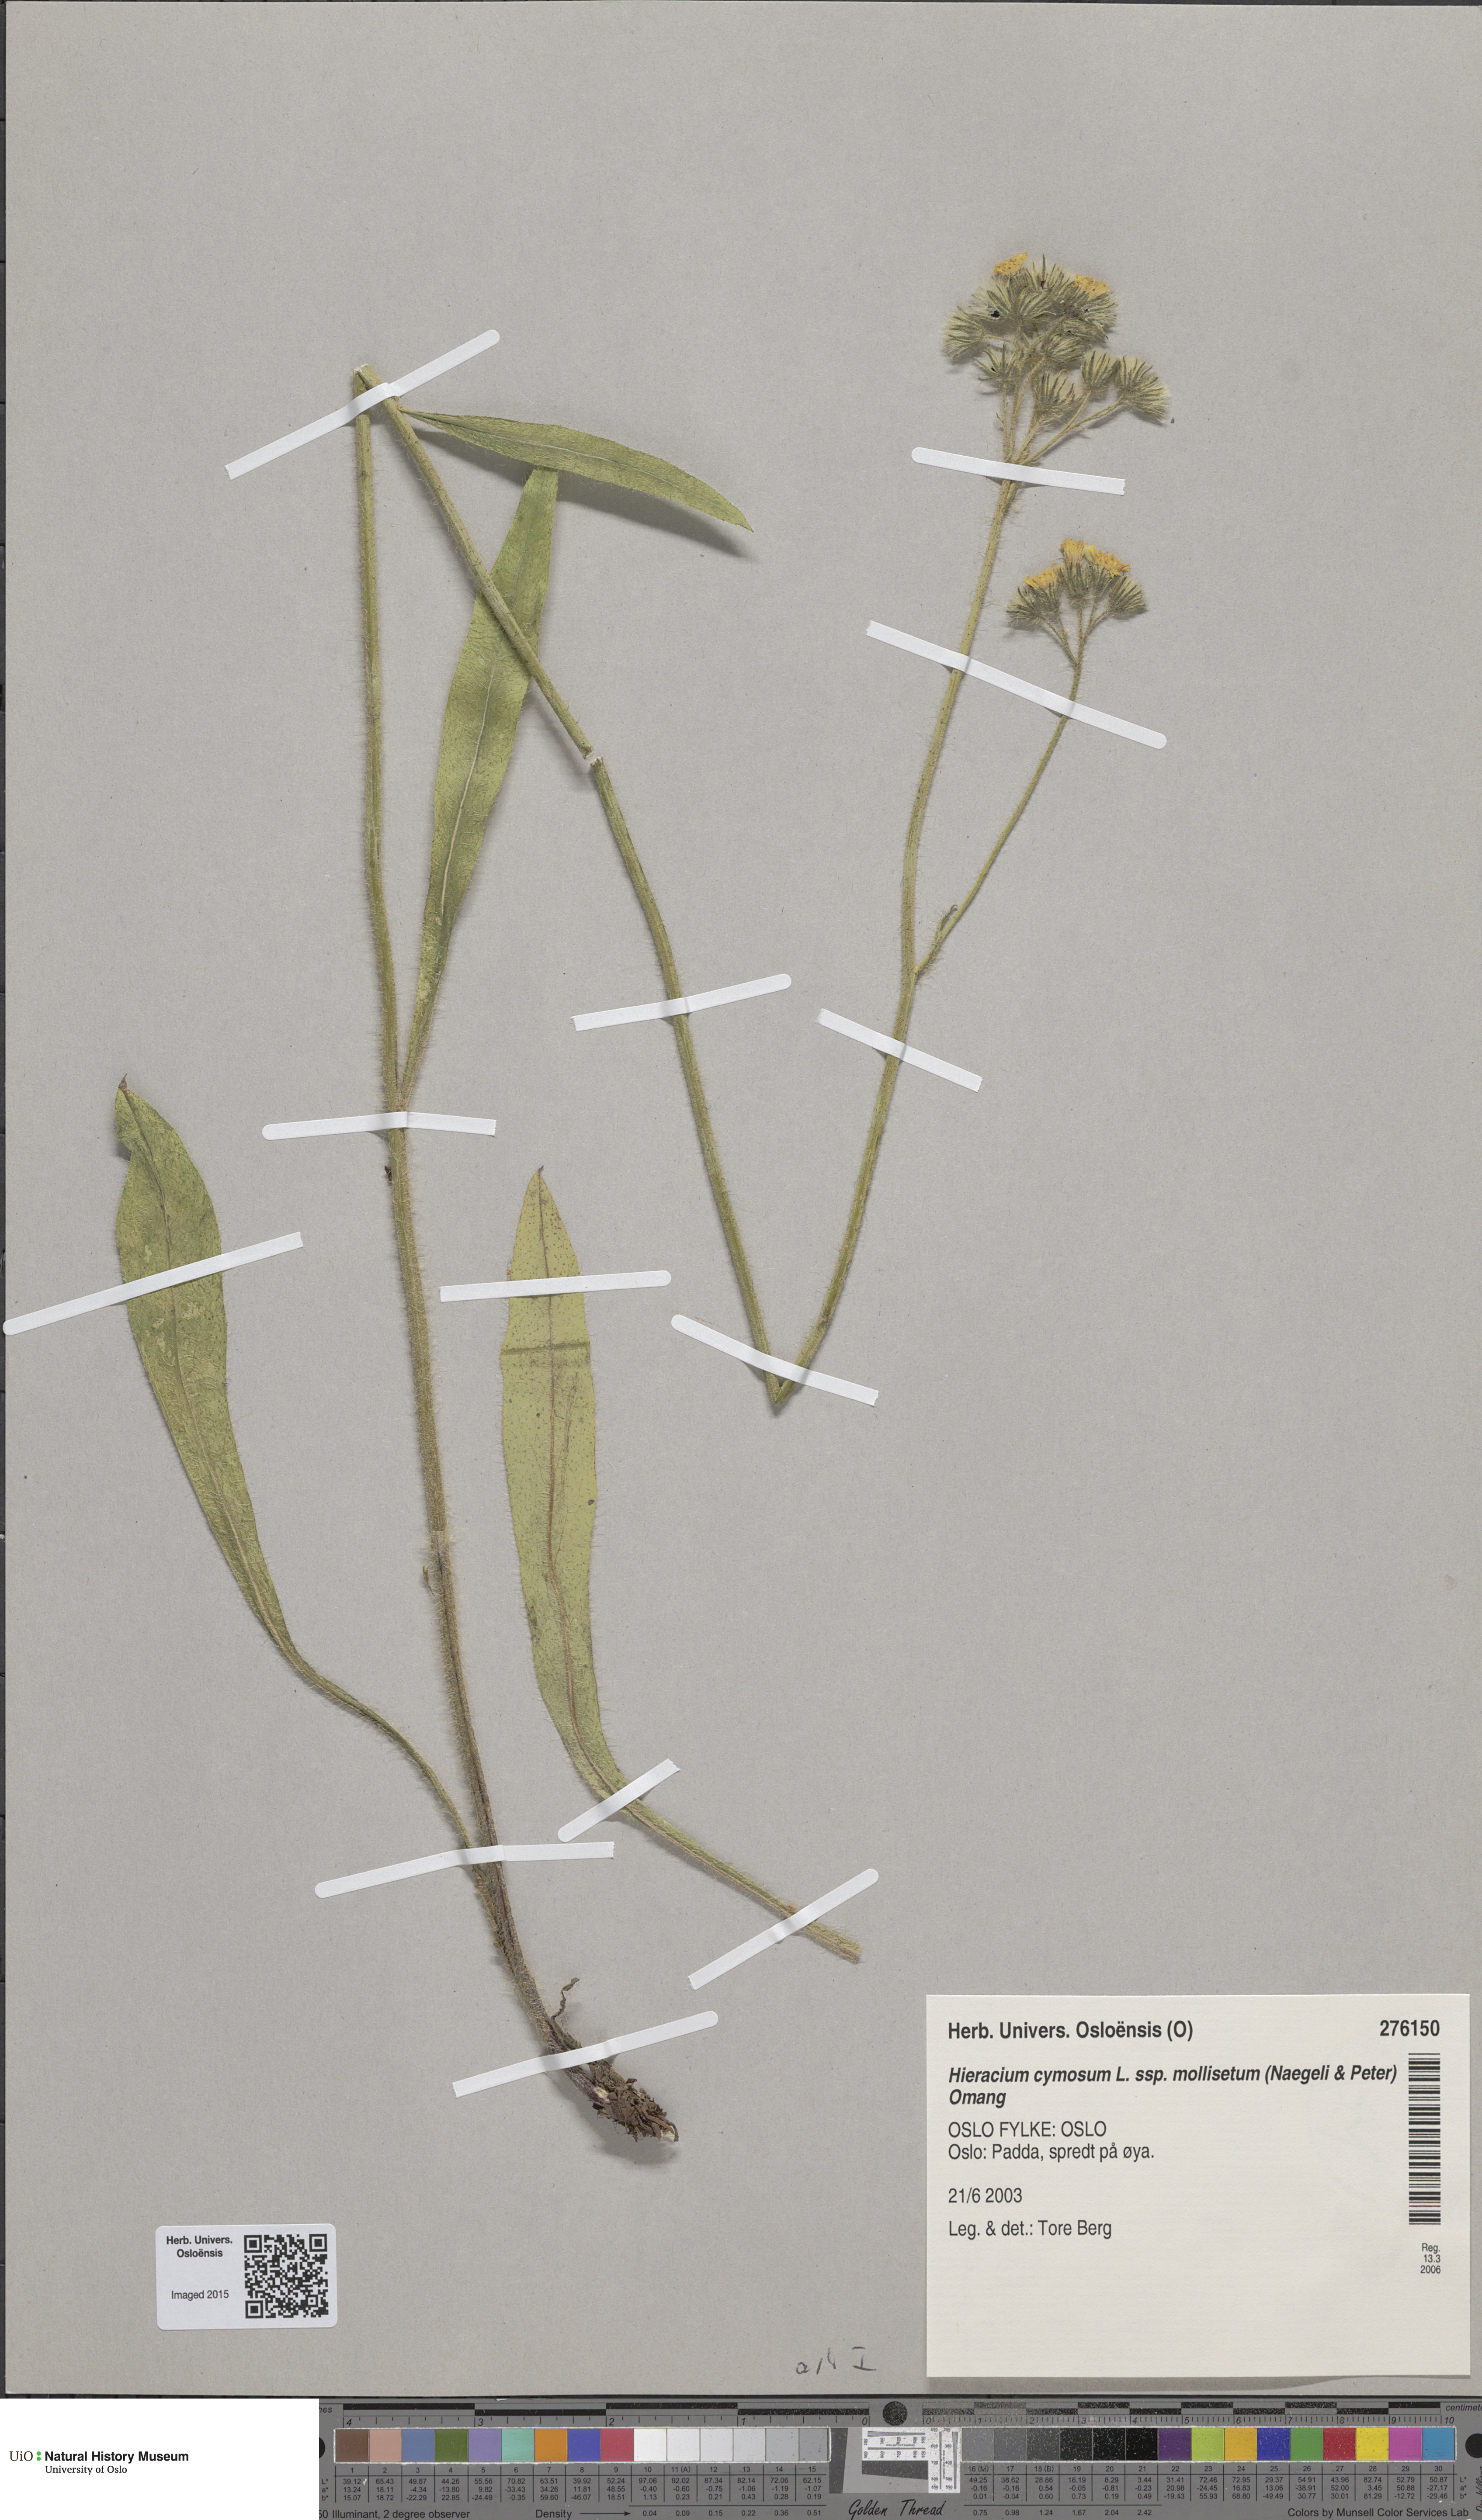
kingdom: Plantae
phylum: Tracheophyta
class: Magnoliopsida
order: Asterales
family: Asteraceae
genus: Pilosella
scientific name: Pilosella cymosa
